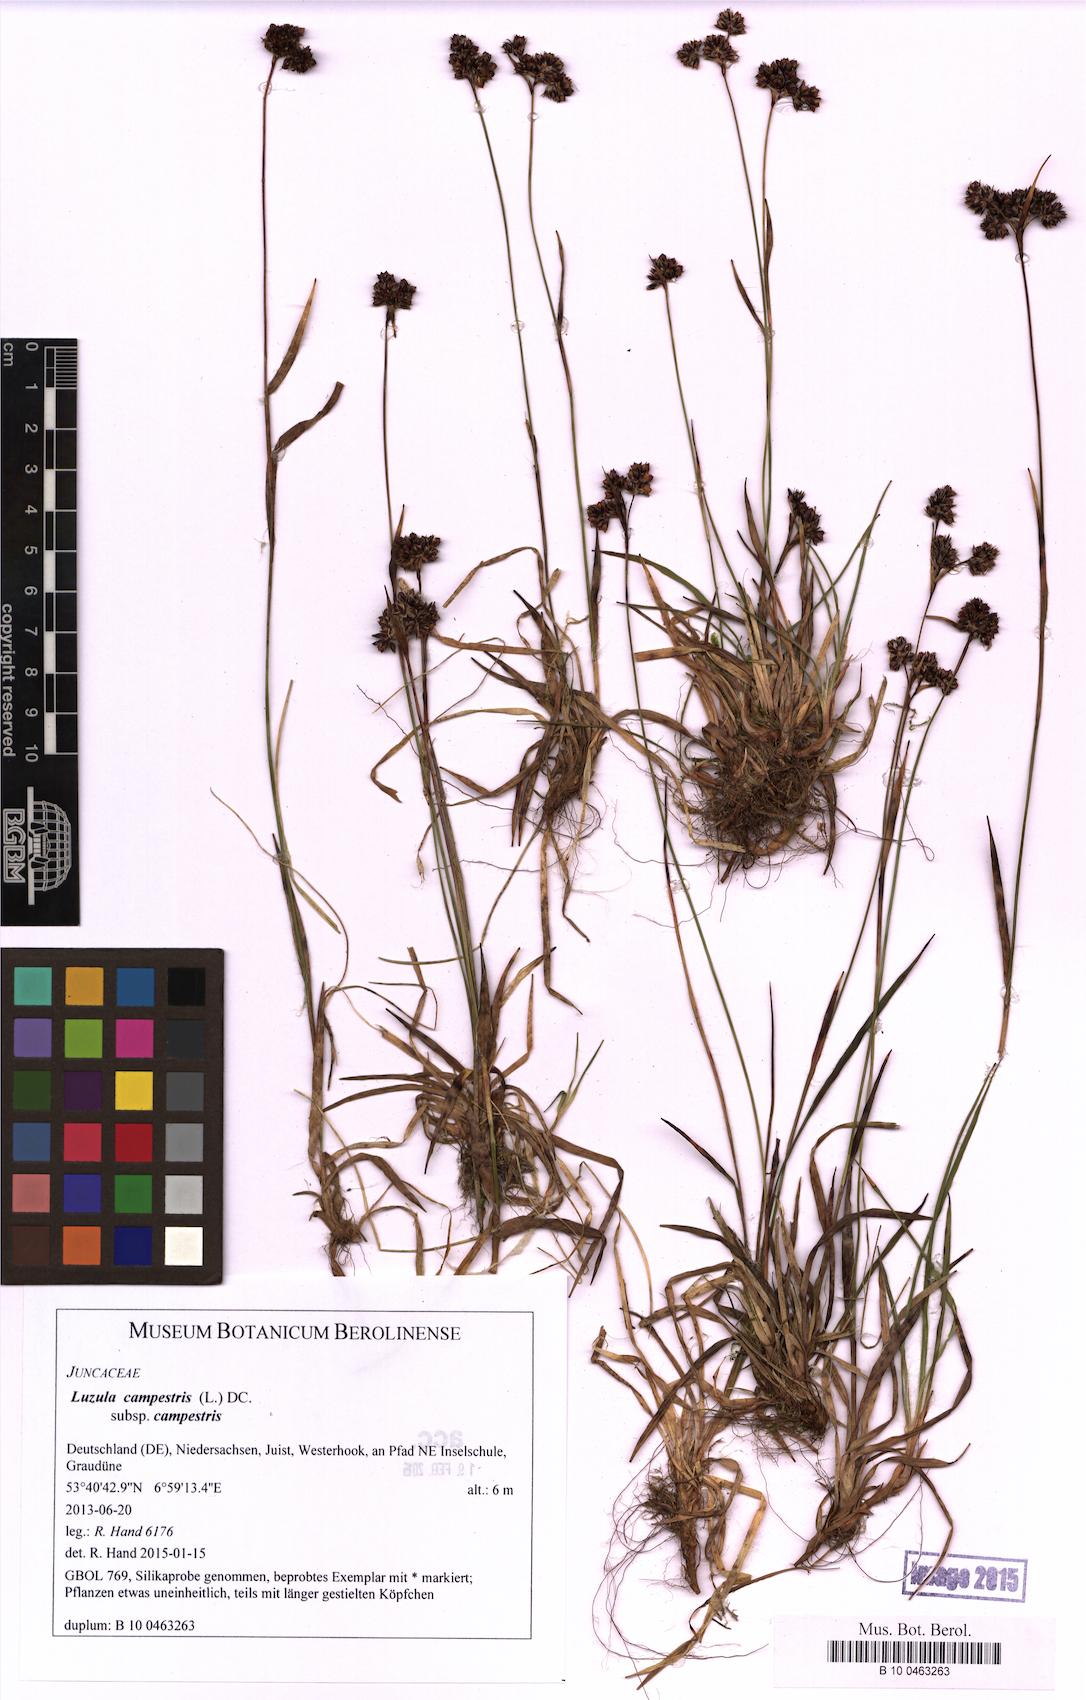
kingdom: Plantae
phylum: Tracheophyta
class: Liliopsida
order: Poales
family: Juncaceae
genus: Luzula
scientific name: Luzula campestris
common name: Field wood-rush
